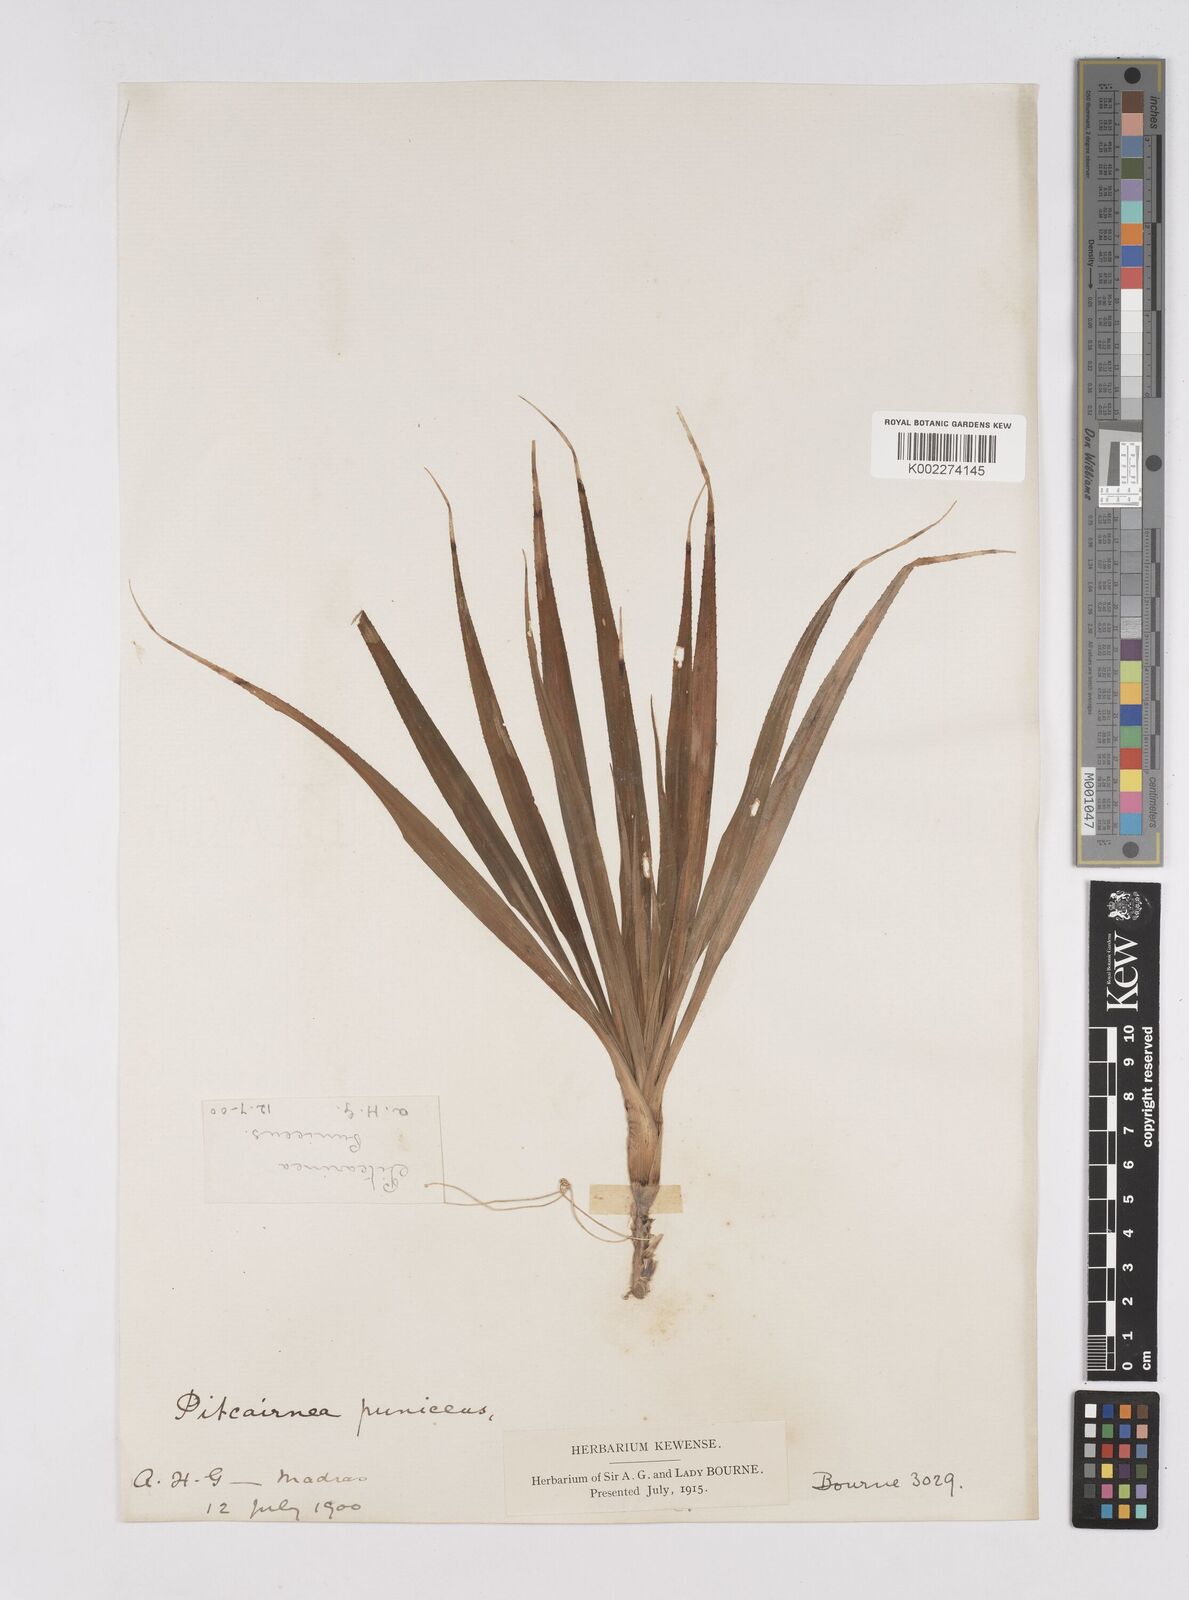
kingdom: Plantae
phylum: Tracheophyta
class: Liliopsida
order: Poales
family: Bromeliaceae
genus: Pitcairnia
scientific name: Pitcairnia punicea
